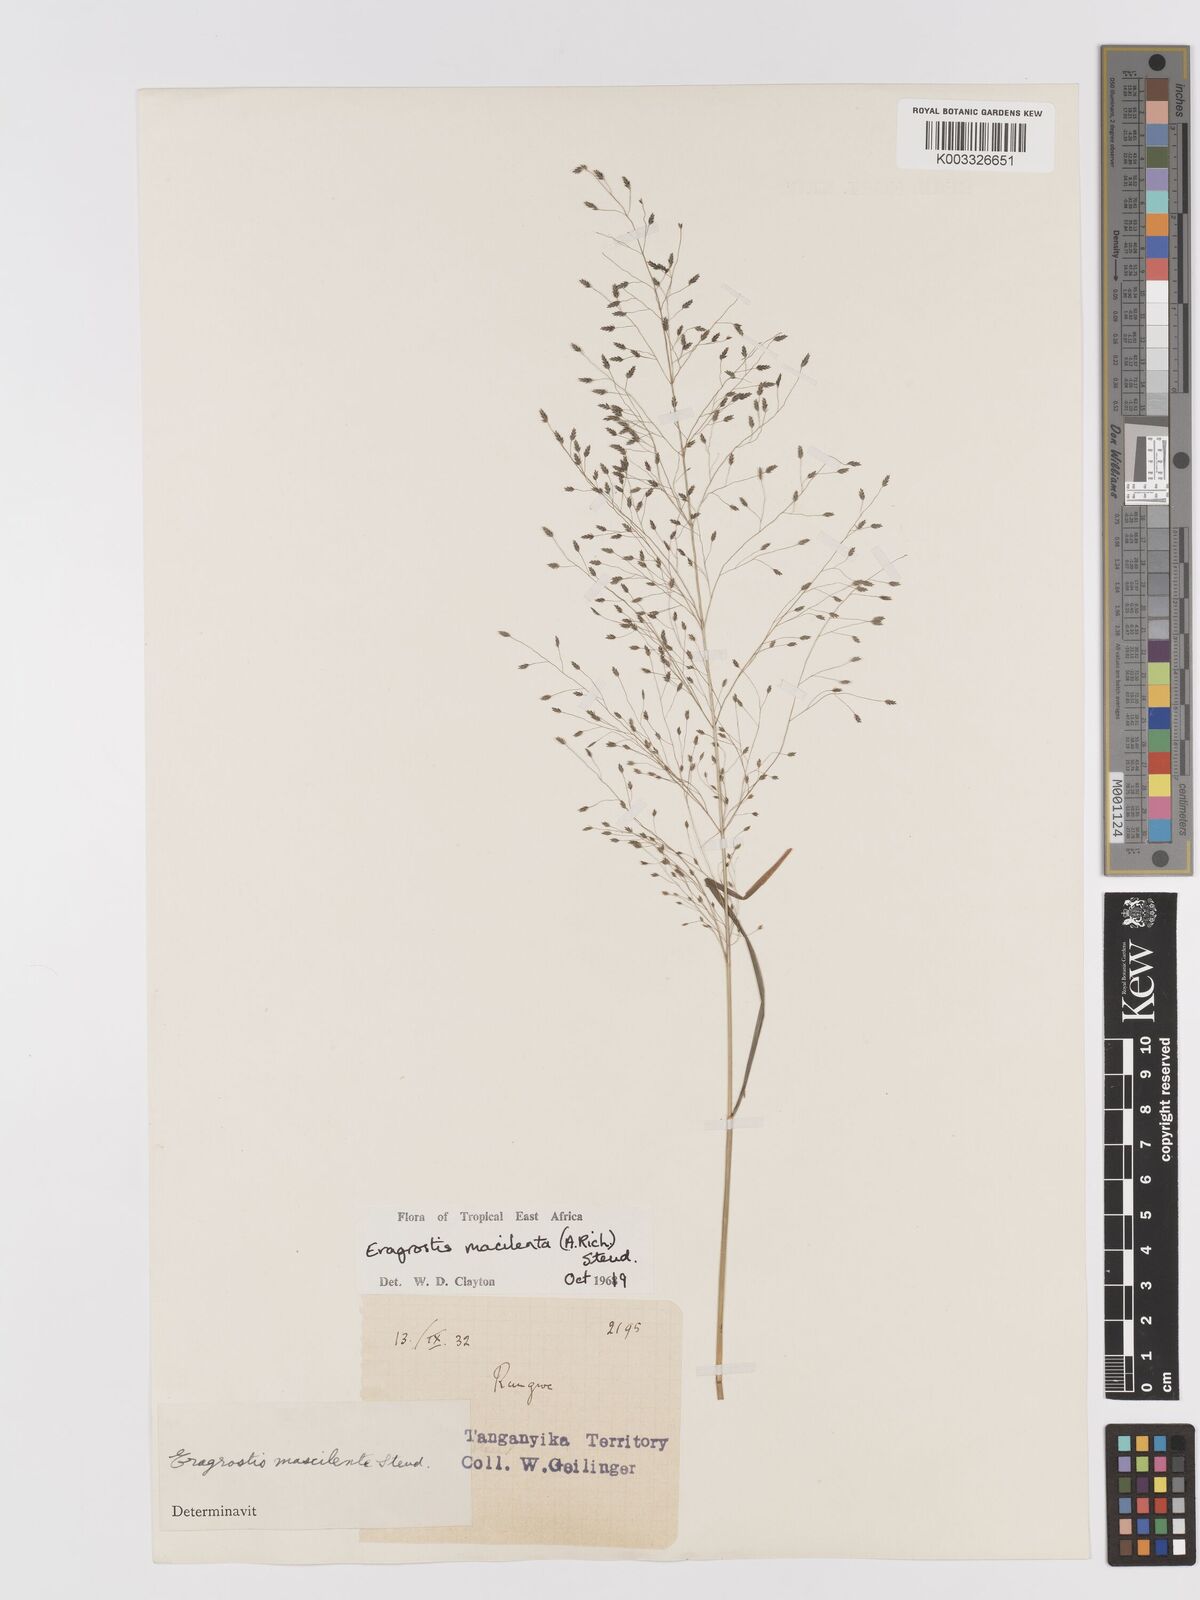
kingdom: Plantae
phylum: Tracheophyta
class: Liliopsida
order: Poales
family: Poaceae
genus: Eragrostis
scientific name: Eragrostis macilenta
